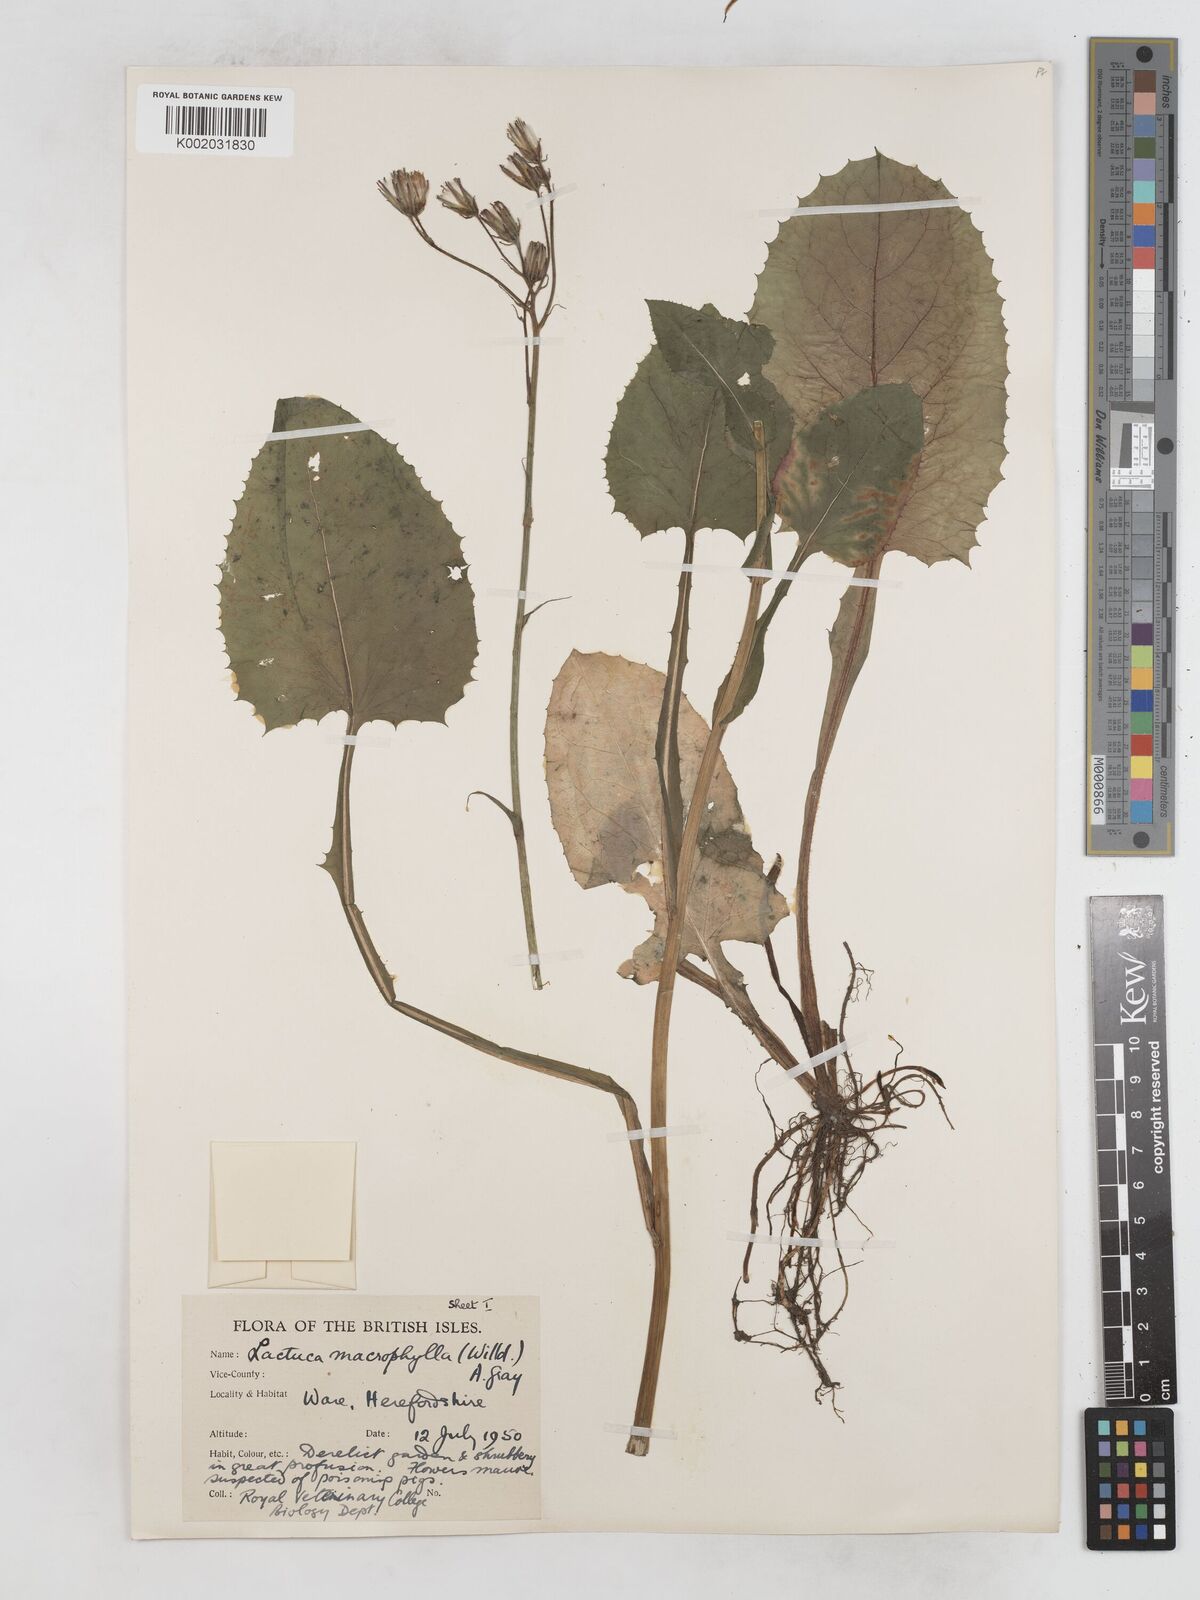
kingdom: Plantae
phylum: Tracheophyta
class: Magnoliopsida
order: Asterales
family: Asteraceae
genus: Lactuca
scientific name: Lactuca macrophylla
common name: Common blue-sow-thistle
